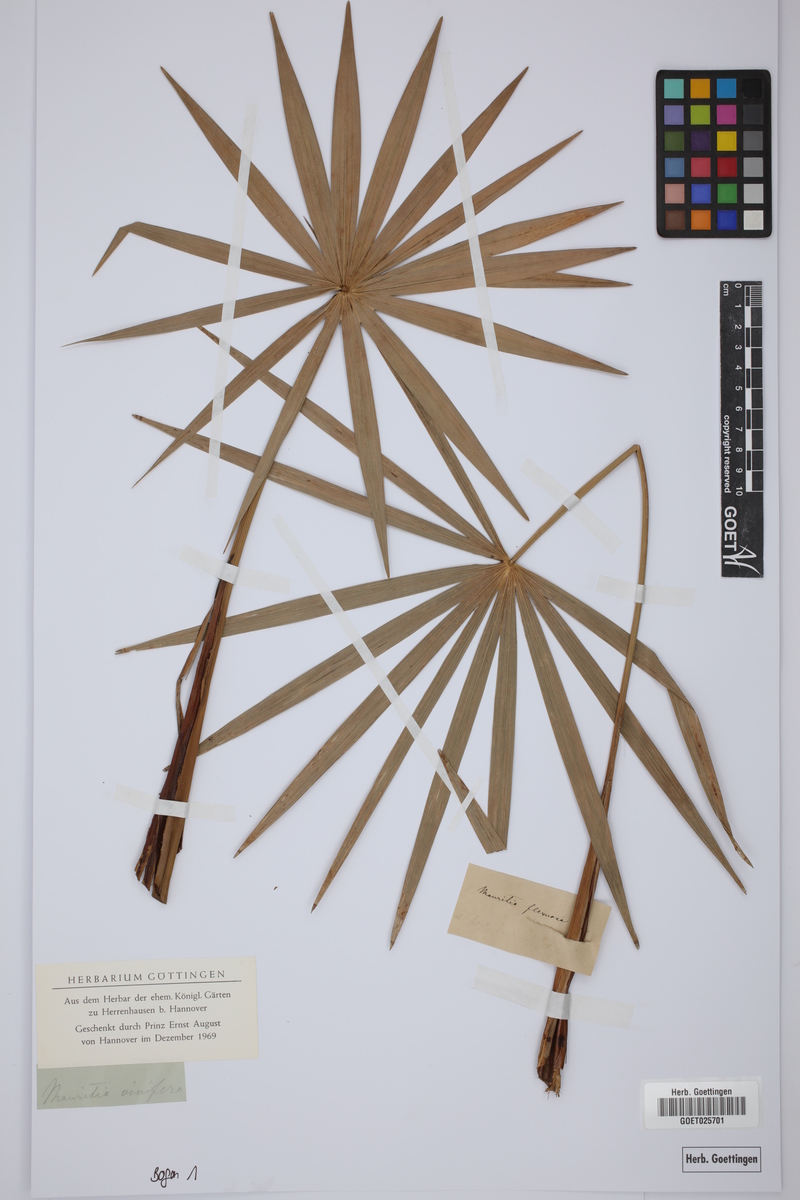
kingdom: Plantae
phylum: Tracheophyta
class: Liliopsida
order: Arecales
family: Arecaceae
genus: Mauritia
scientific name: Mauritia flexuosa
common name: Tree-of-life
